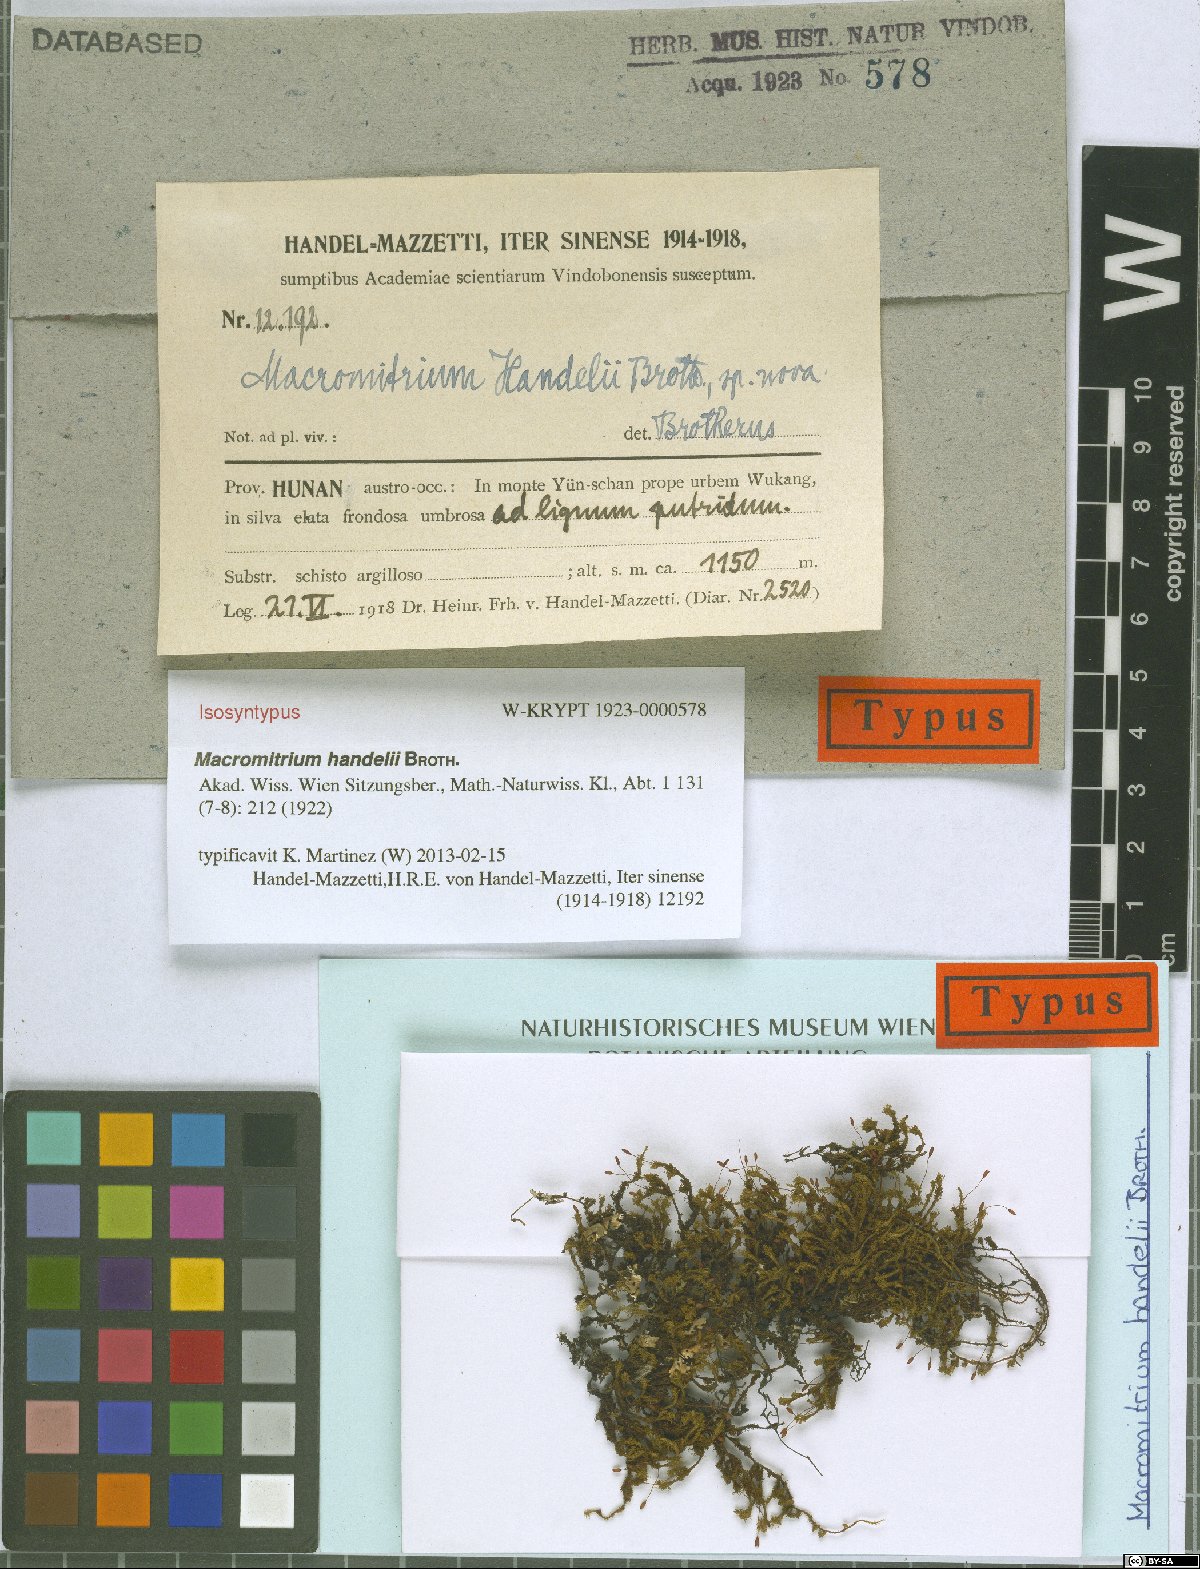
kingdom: Plantae
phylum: Bryophyta
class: Bryopsida
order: Orthotrichales
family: Orthotrichaceae
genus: Macromitrium
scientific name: Macromitrium cavaleriei
